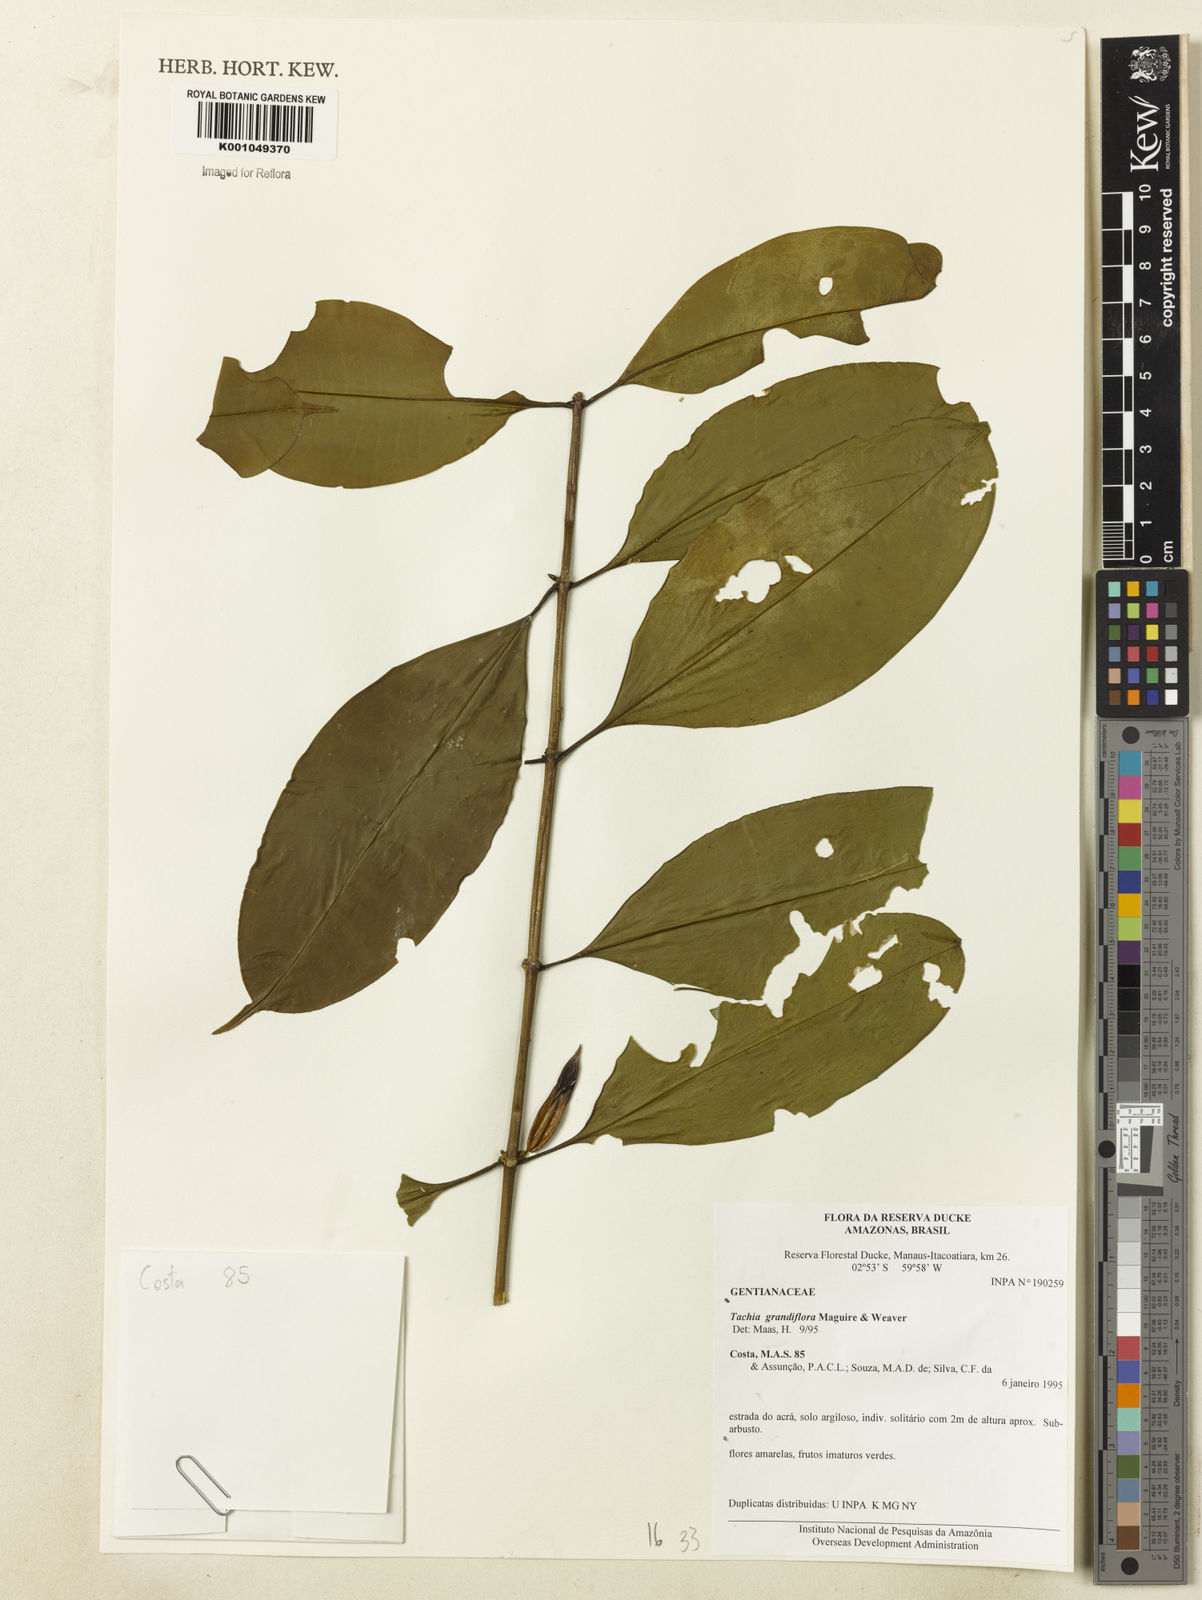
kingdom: Plantae
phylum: Tracheophyta
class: Magnoliopsida
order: Gentianales
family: Gentianaceae
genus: Tachia
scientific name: Tachia grandiflora
